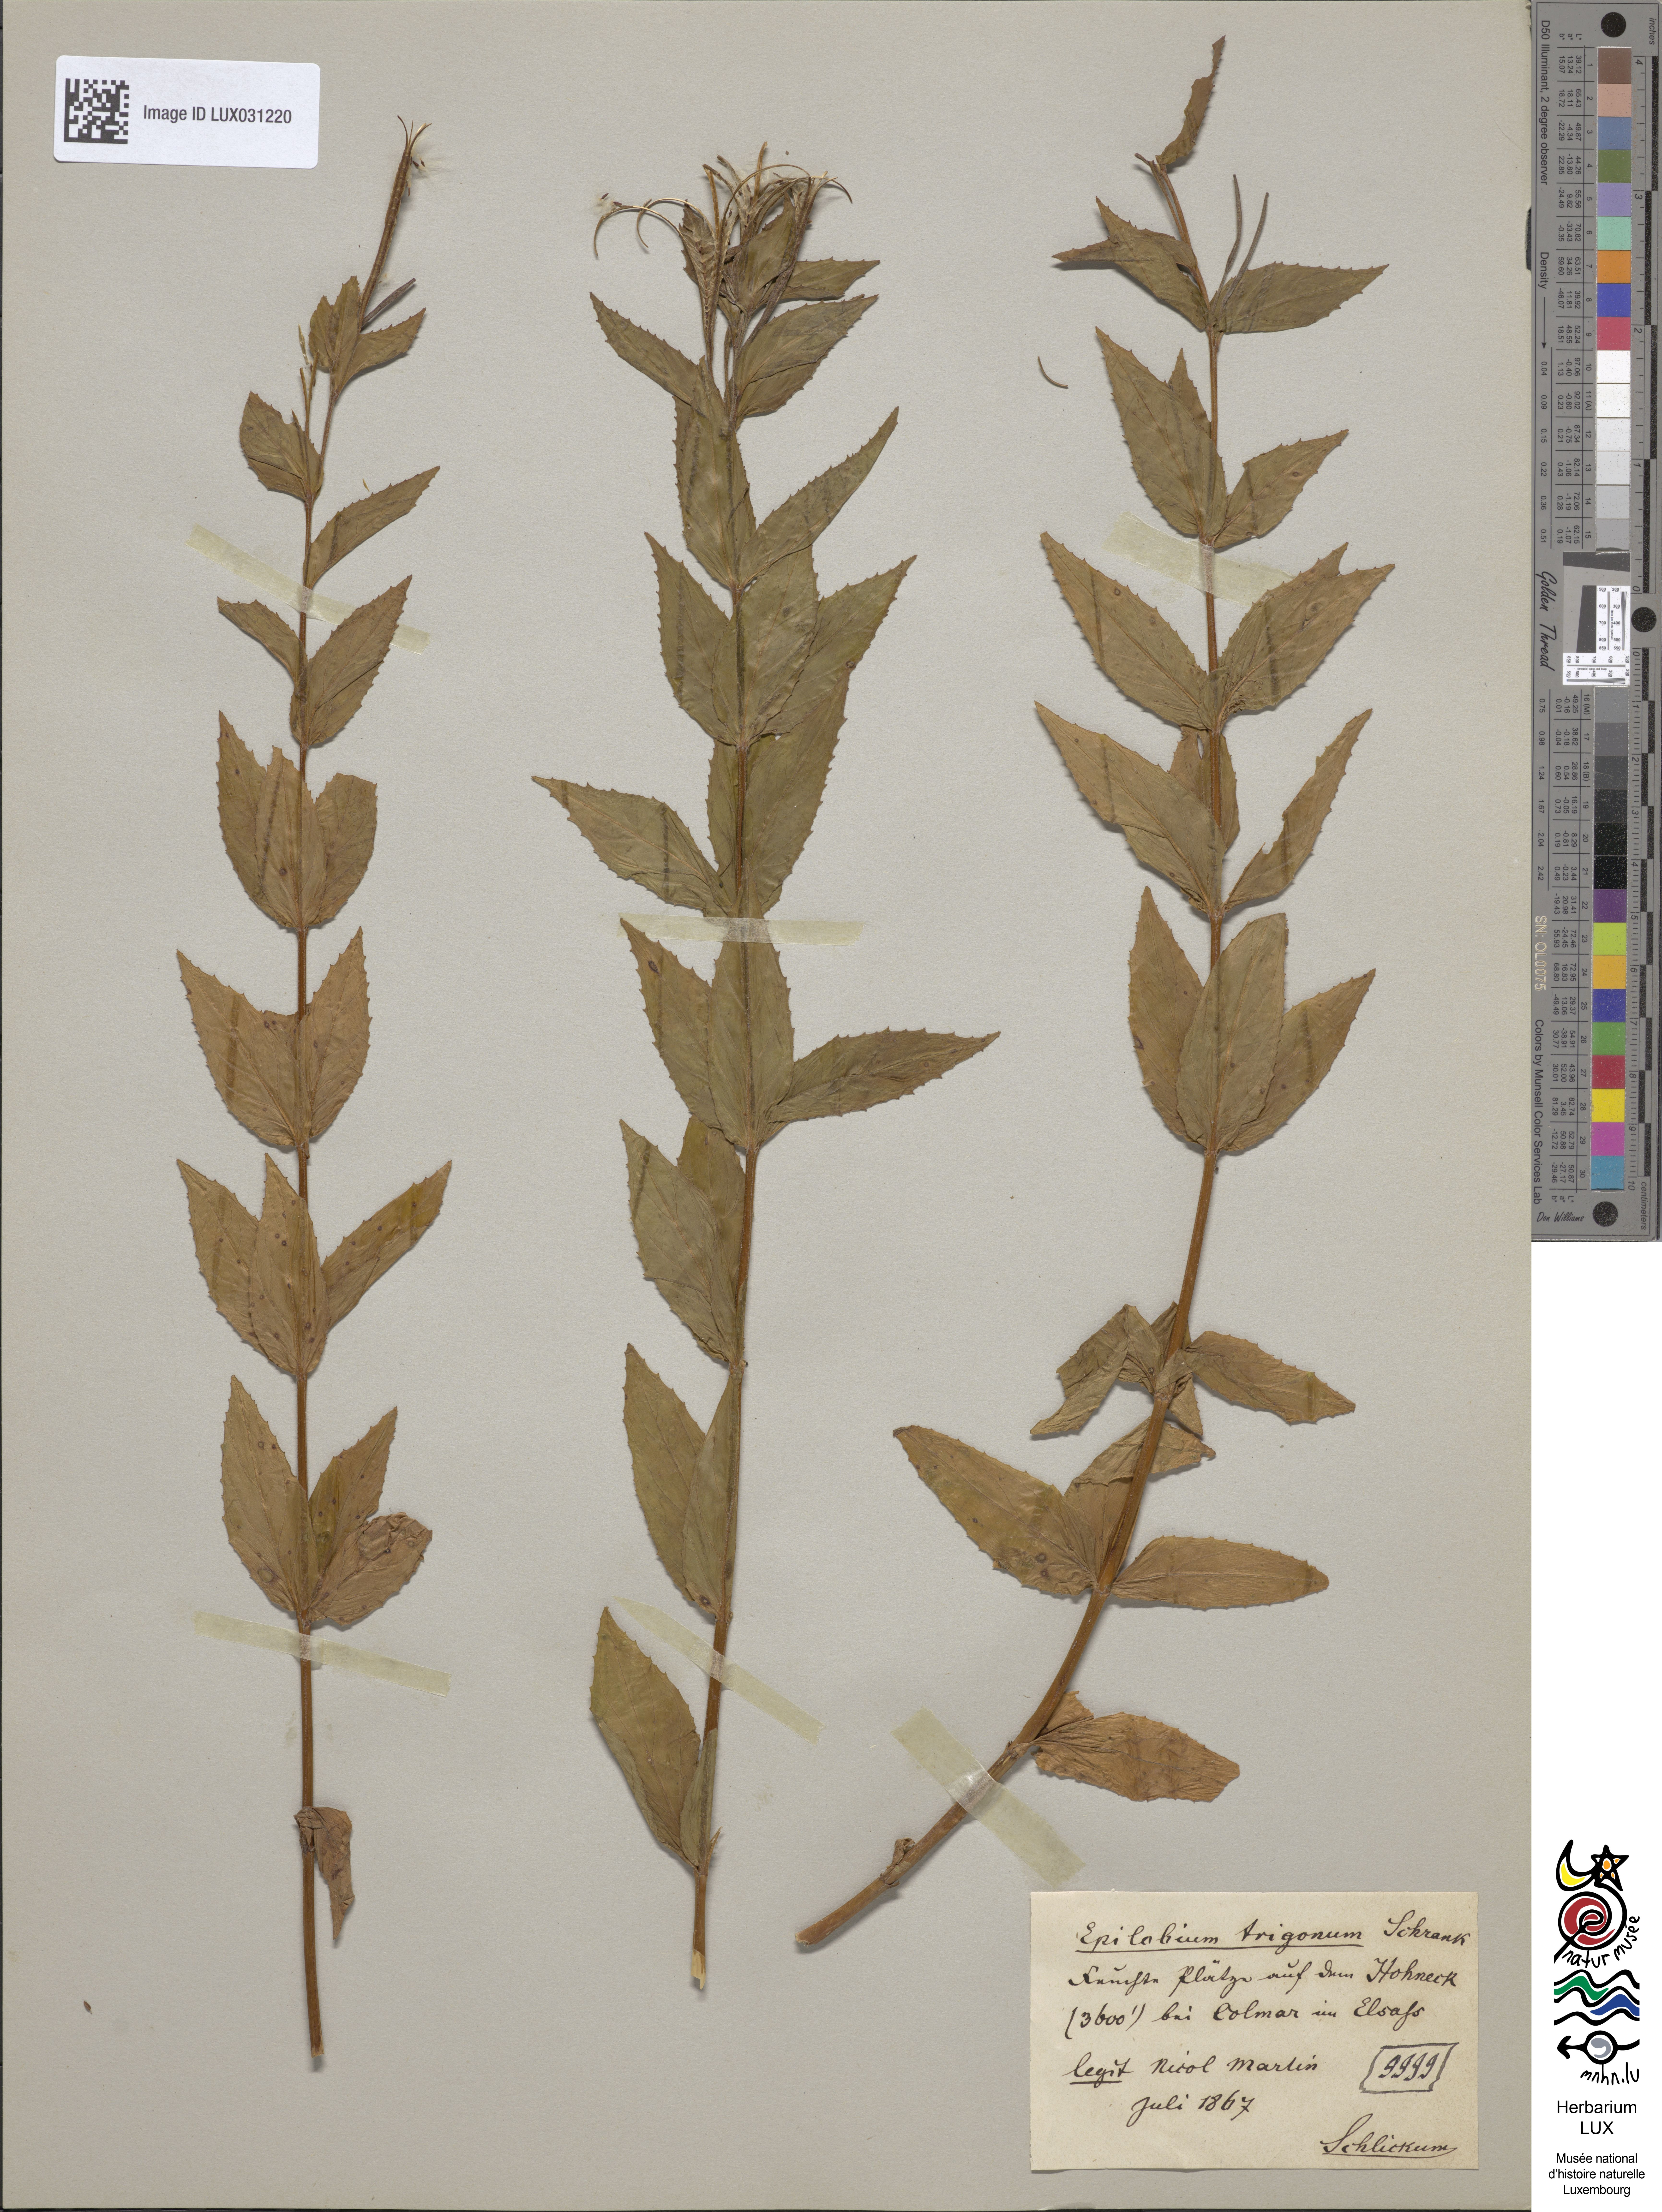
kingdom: Plantae
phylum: Tracheophyta
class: Magnoliopsida
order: Myrtales
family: Onagraceae
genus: Epilobium
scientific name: Epilobium alpestre
